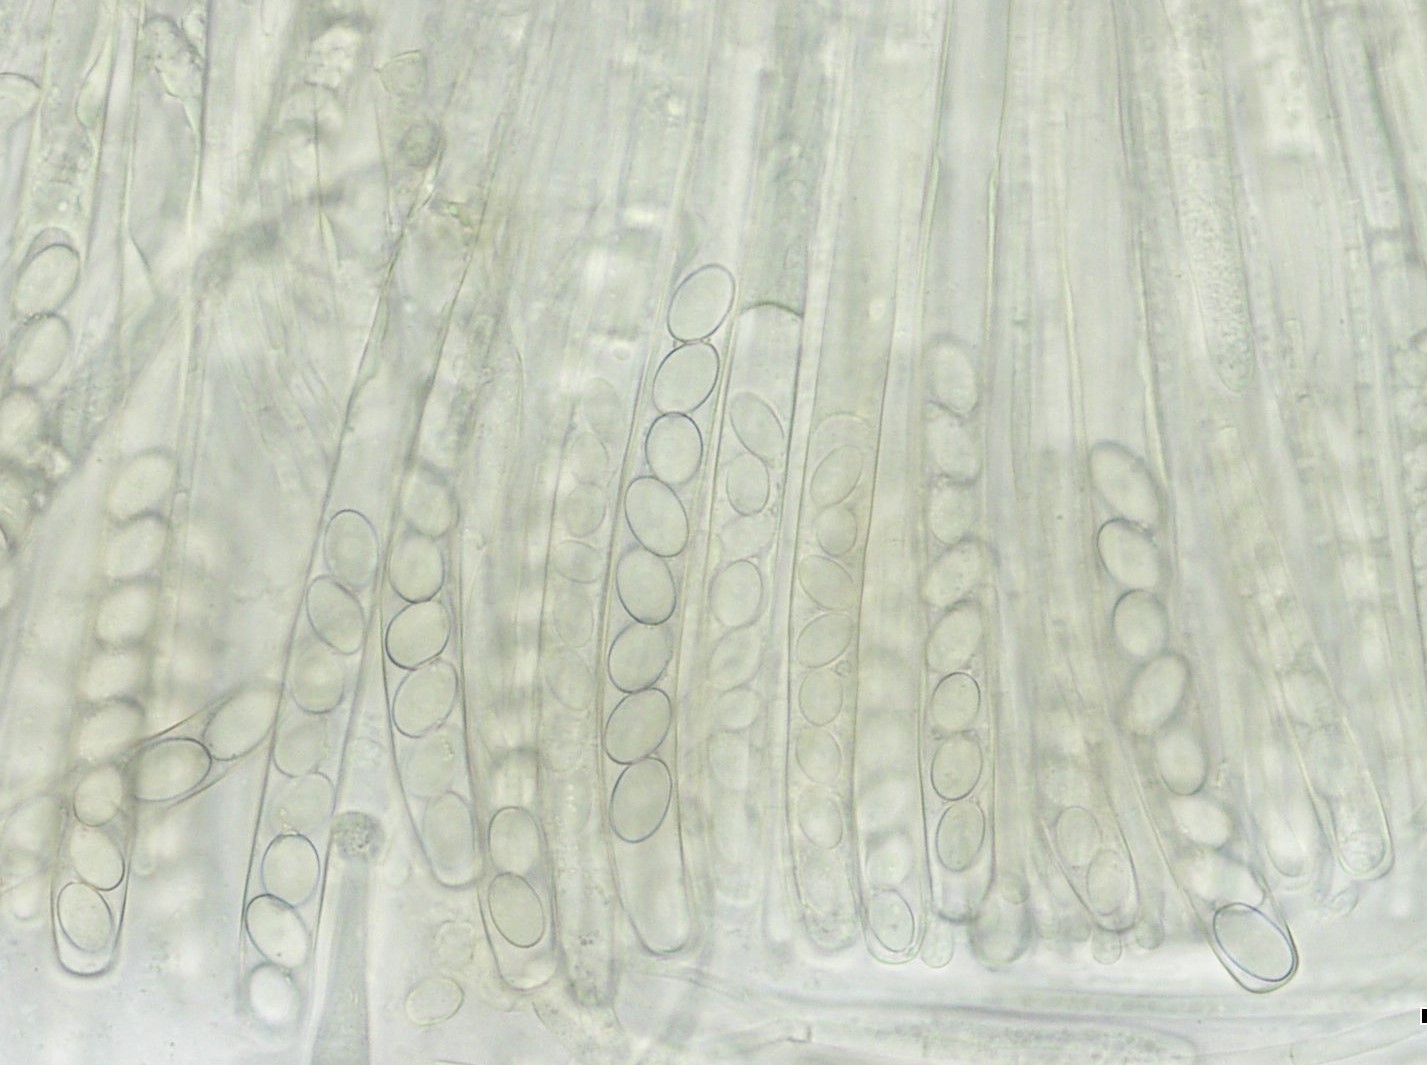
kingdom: Fungi
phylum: Ascomycota
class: Pezizomycetes
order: Pezizales
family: Pezizaceae
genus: Peziza
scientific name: Peziza varia
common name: Ved-bægersvamp
